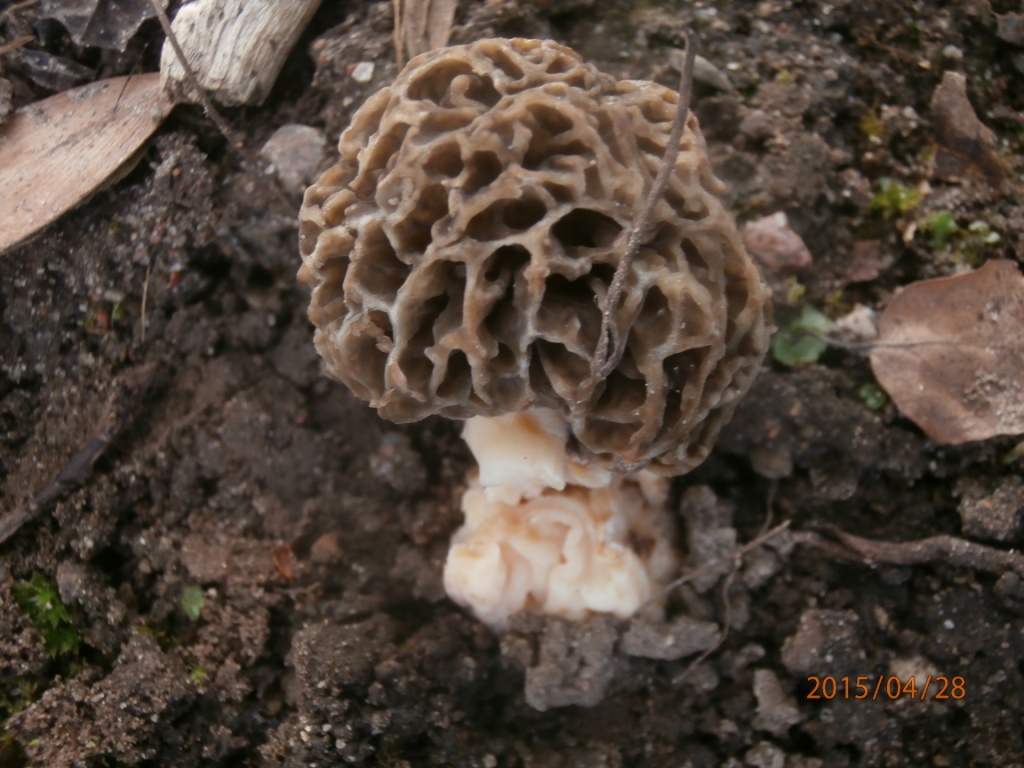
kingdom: Fungi
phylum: Ascomycota
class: Pezizomycetes
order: Pezizales
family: Morchellaceae
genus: Morchella
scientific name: Morchella esculenta
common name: spiselig morkel
